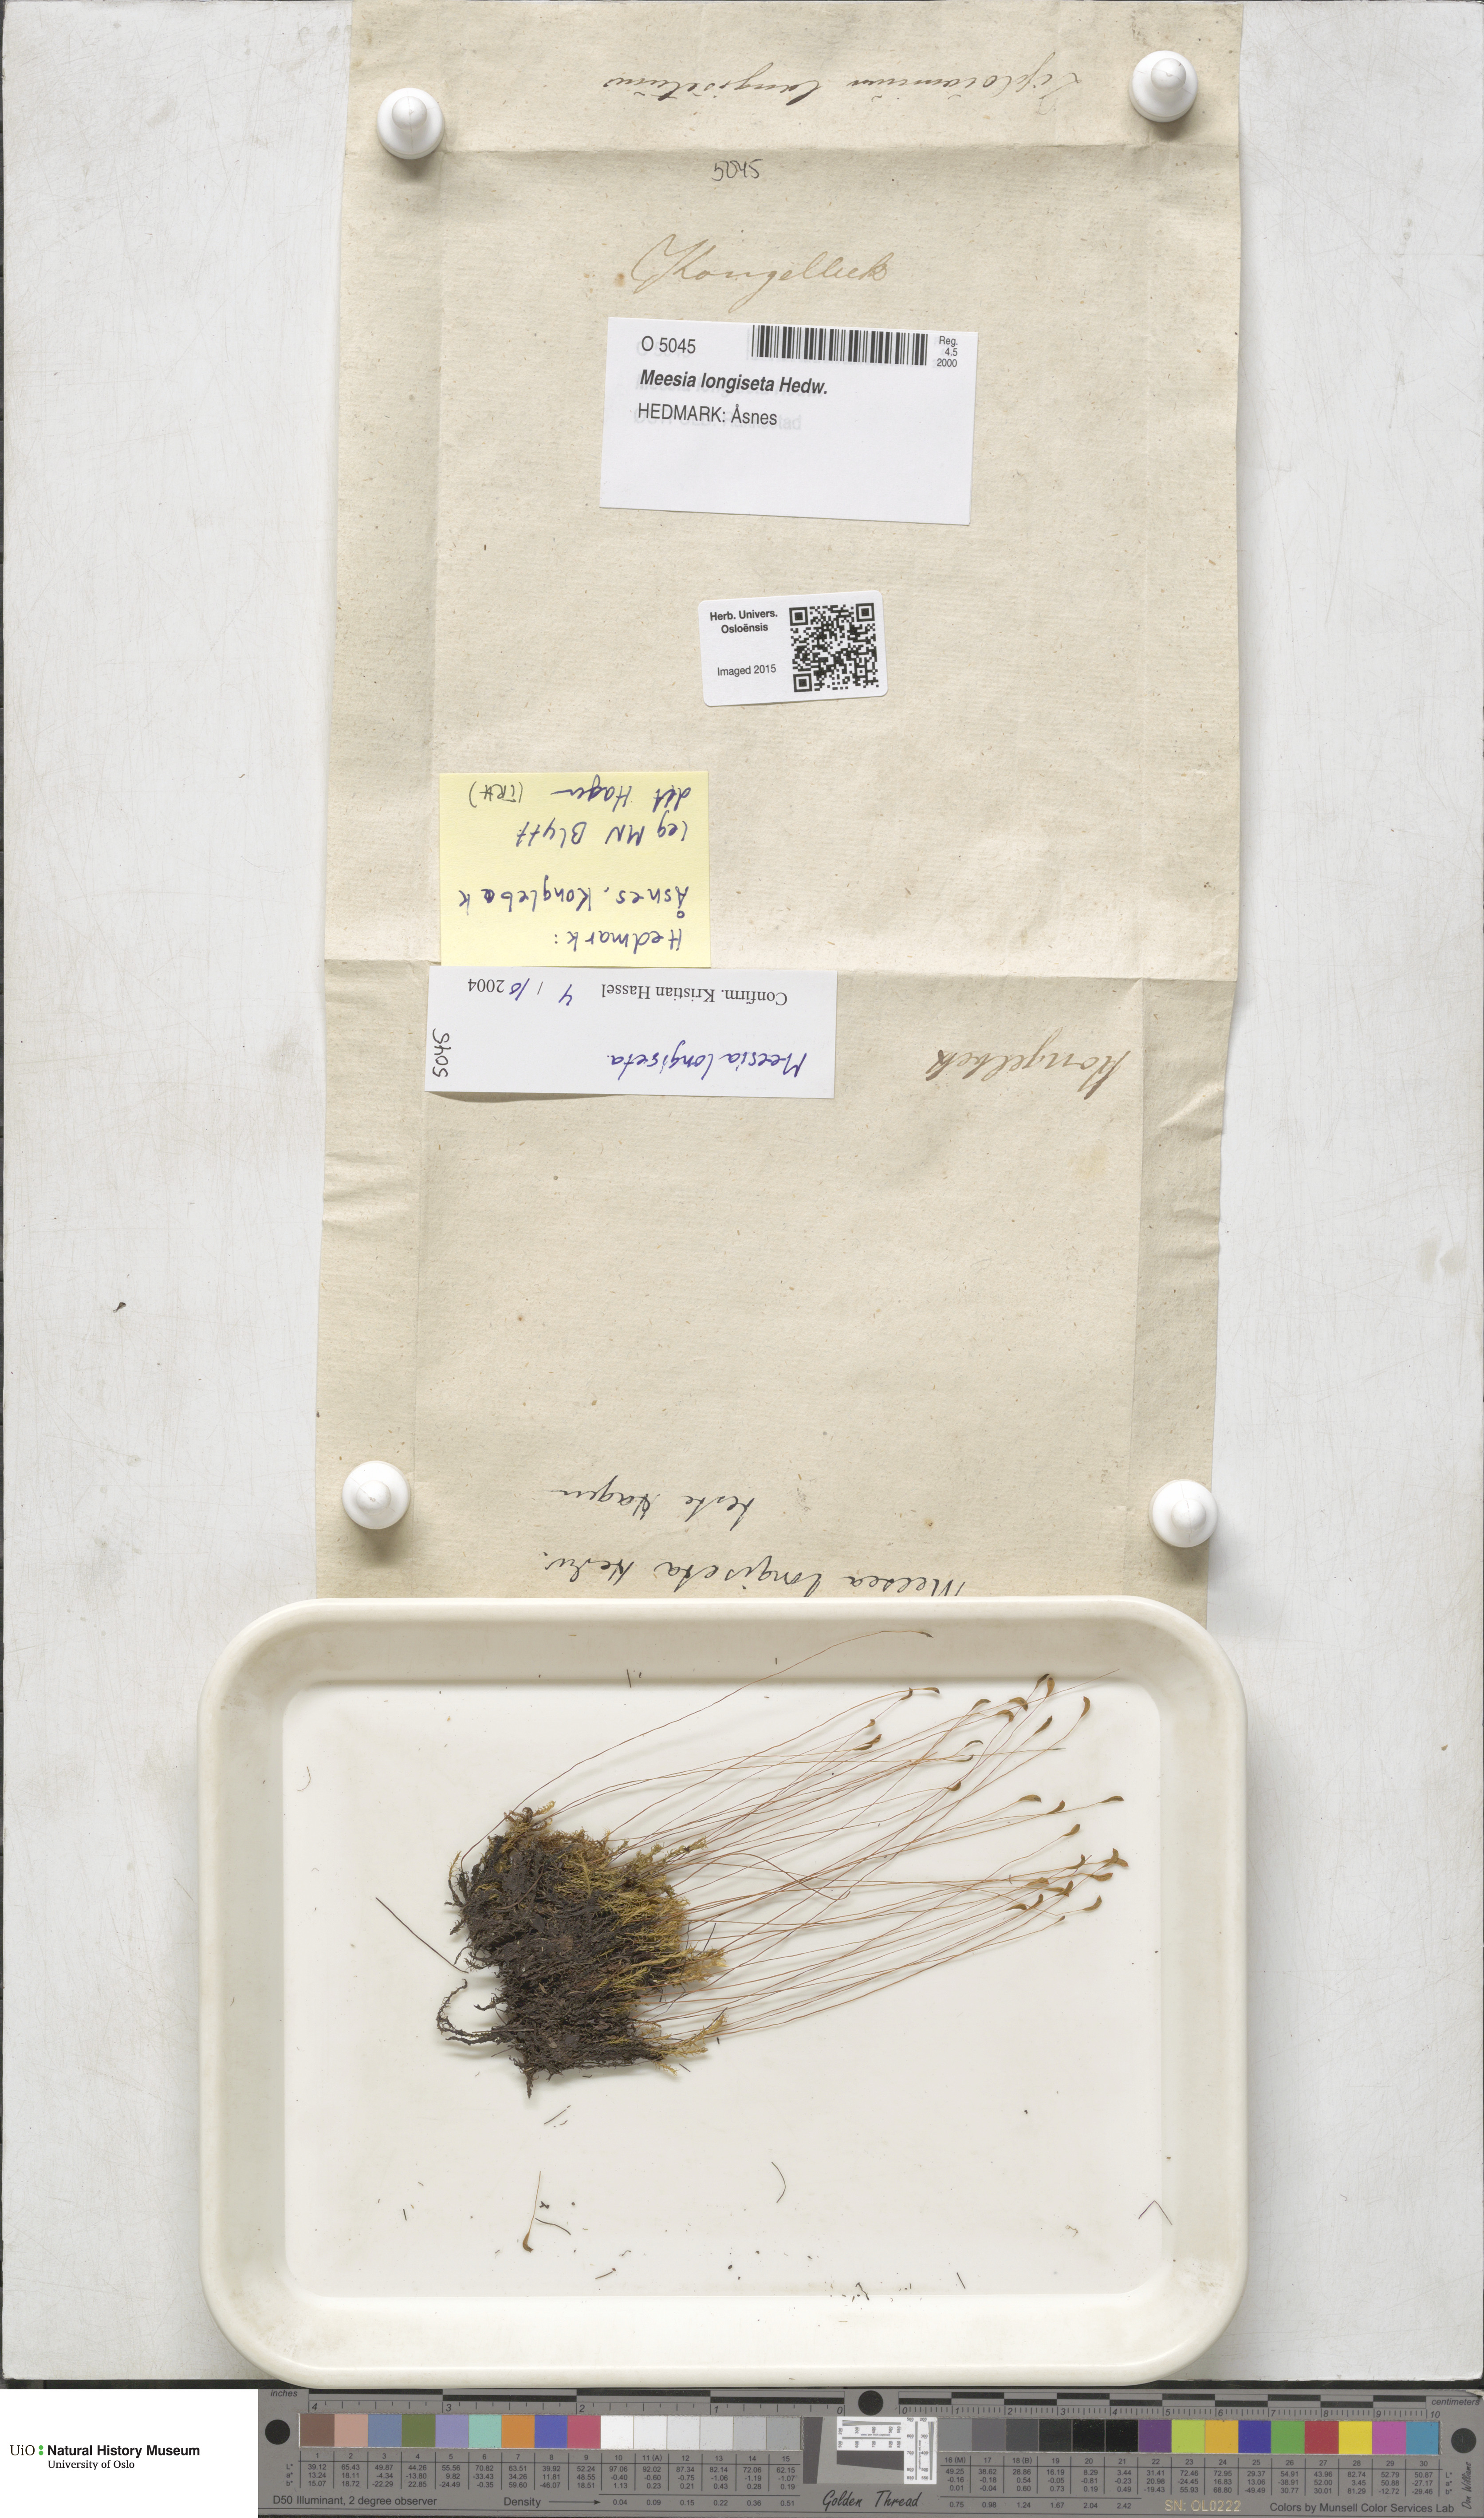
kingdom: Plantae
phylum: Bryophyta
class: Bryopsida
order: Splachnales
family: Meesiaceae
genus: Meesia
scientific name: Meesia longiseta
